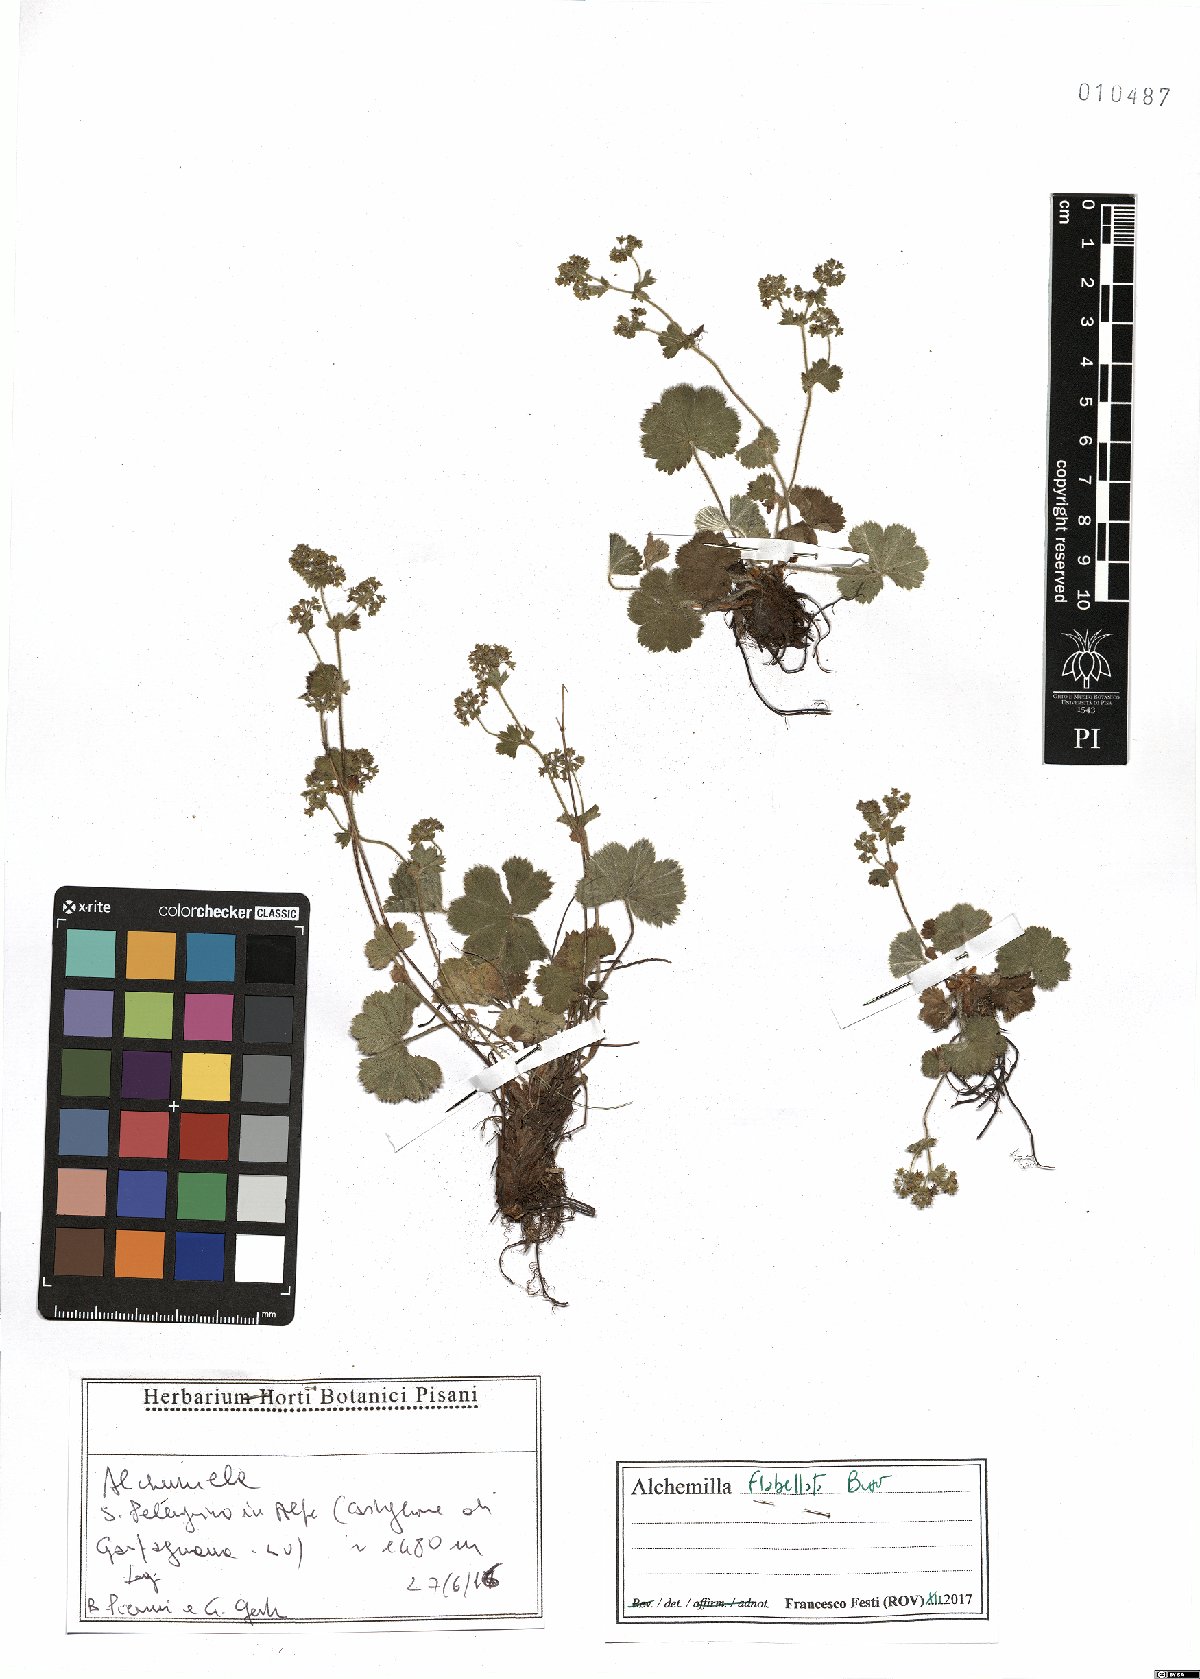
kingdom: Plantae
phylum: Tracheophyta
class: Magnoliopsida
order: Rosales
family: Rosaceae
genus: Alchemilla
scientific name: Alchemilla flabellata
